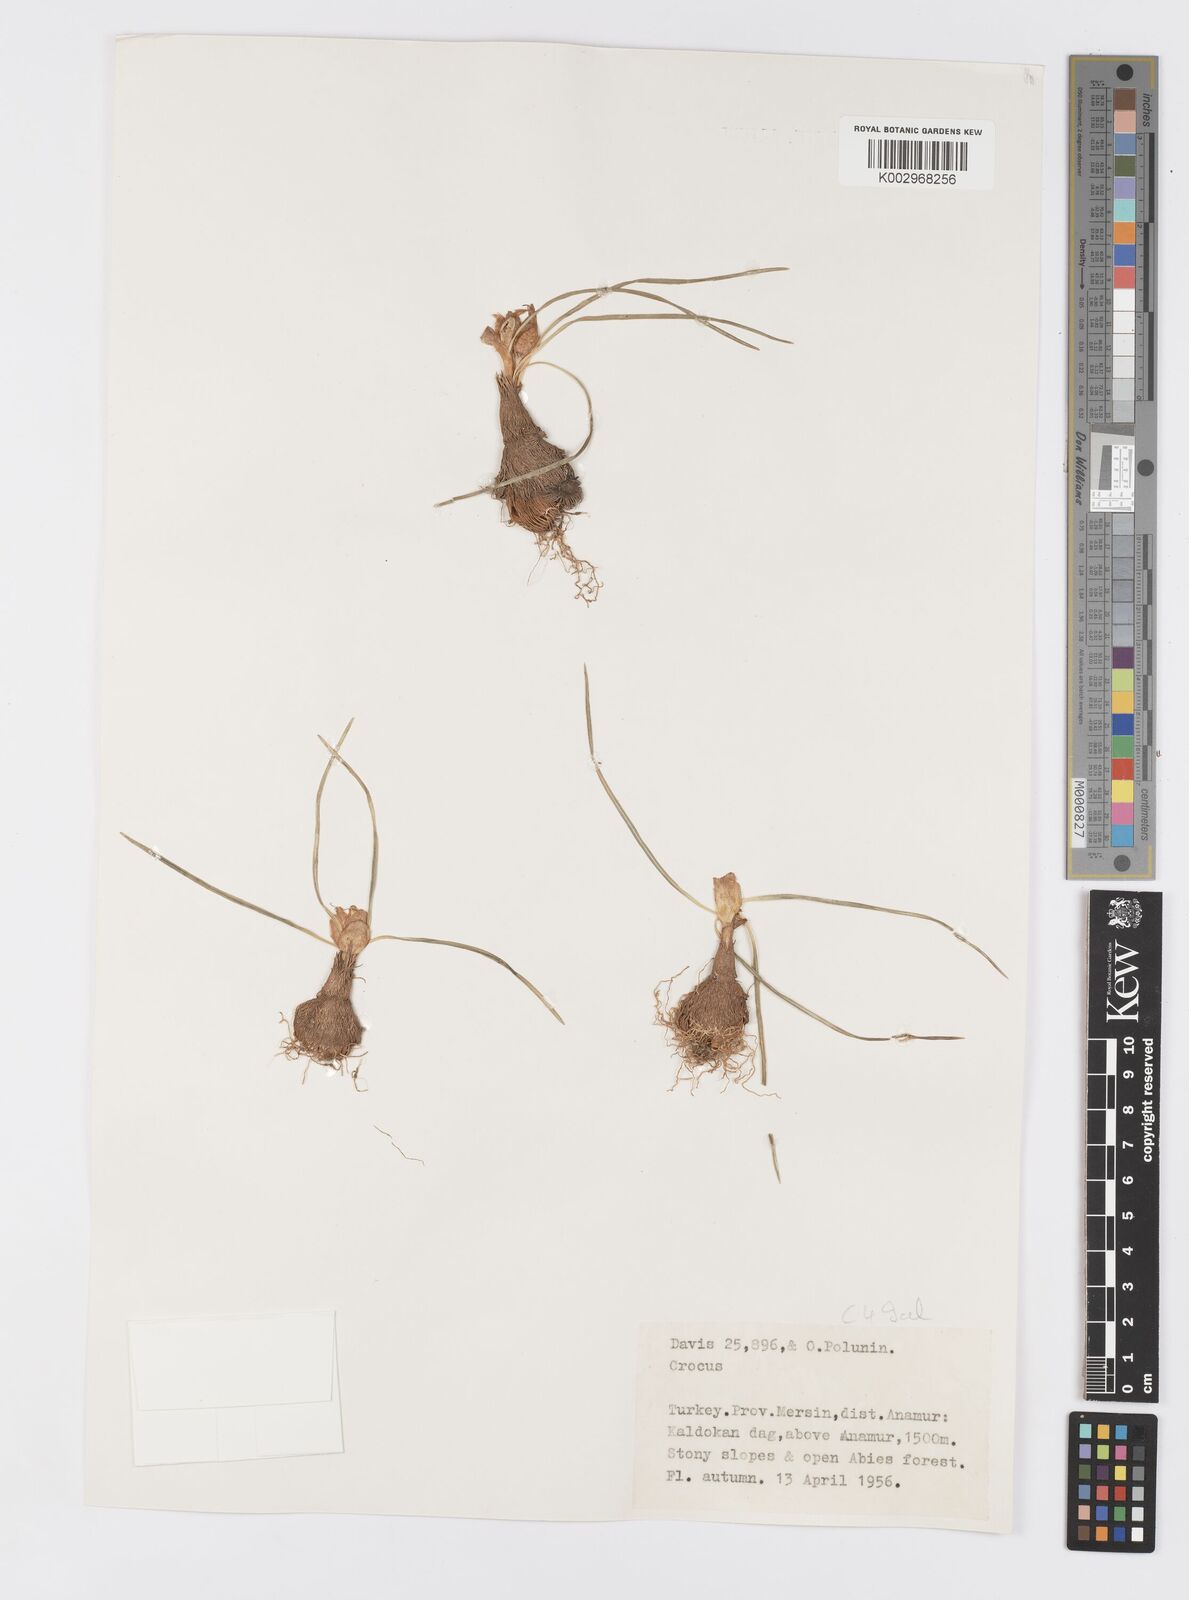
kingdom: Plantae
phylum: Tracheophyta
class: Liliopsida
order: Asparagales
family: Iridaceae
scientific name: Iridaceae
